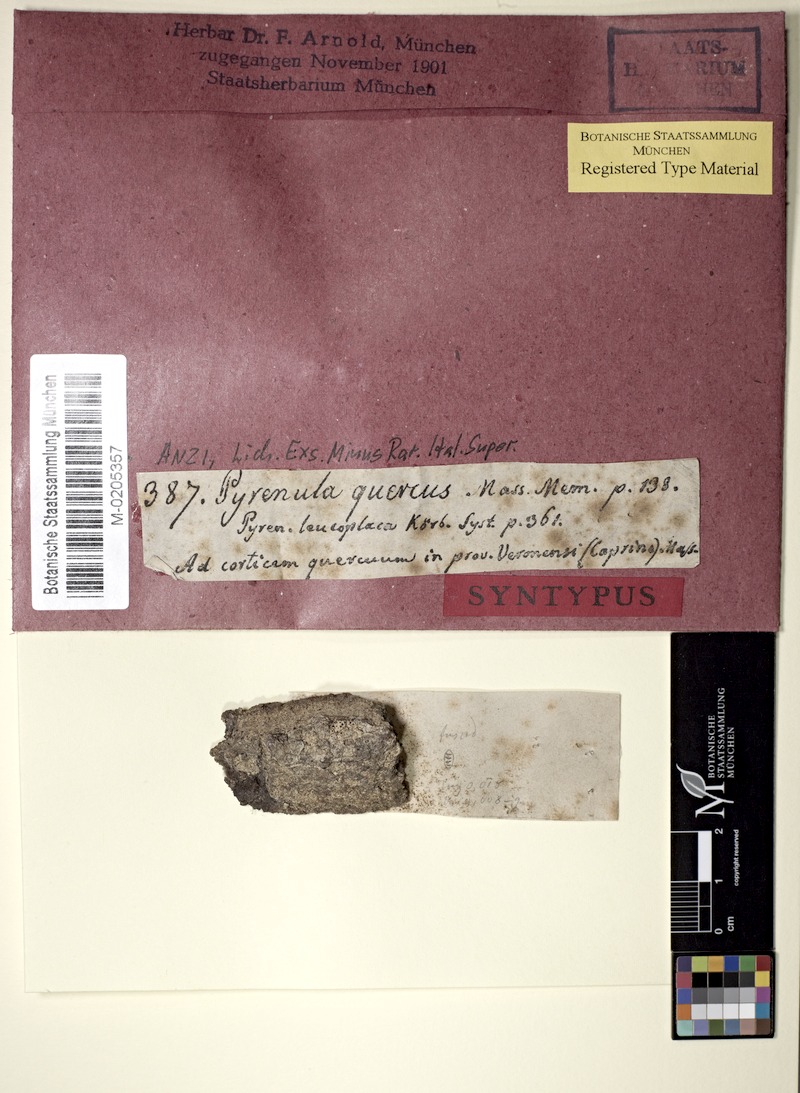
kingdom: Fungi
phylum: Ascomycota
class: Dothideomycetes
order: Pleosporales
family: Dacampiaceae
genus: Eopyrenula
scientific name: Eopyrenula leucoplaca
